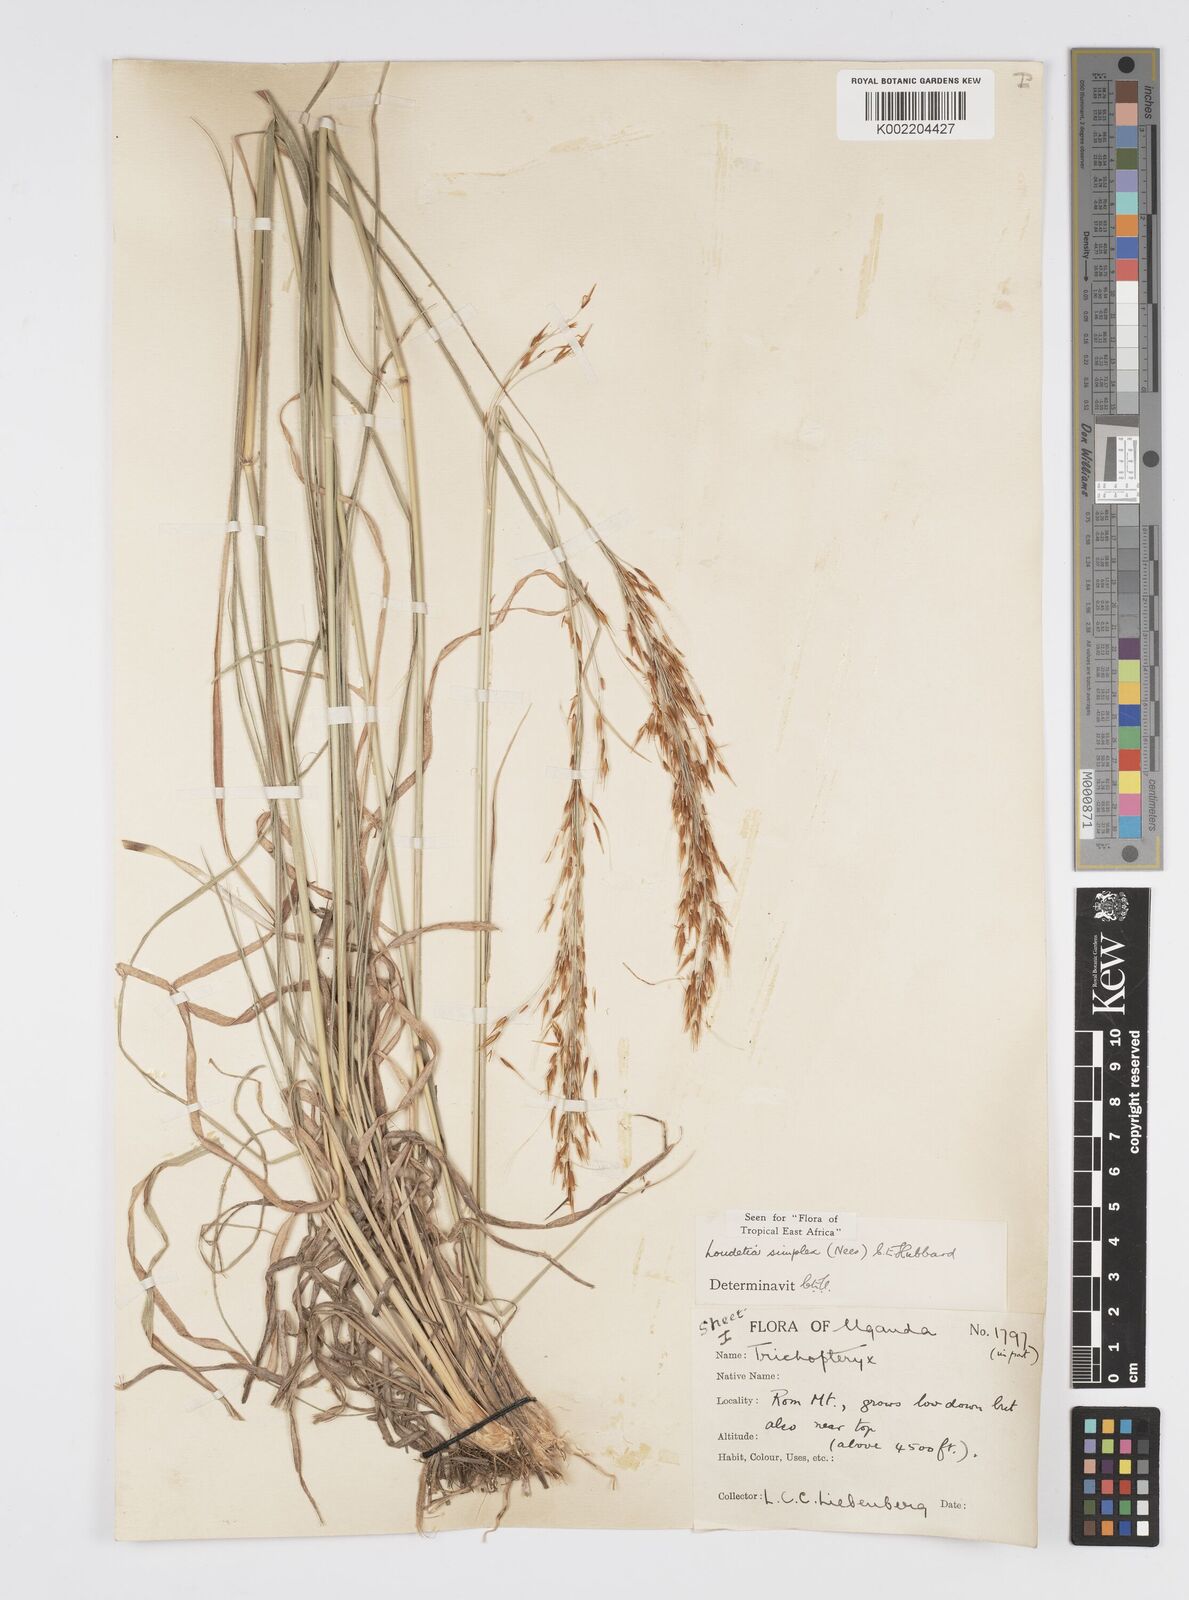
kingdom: Plantae
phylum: Tracheophyta
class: Liliopsida
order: Poales
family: Poaceae
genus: Loudetia
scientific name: Loudetia simplex
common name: Common russet grass
